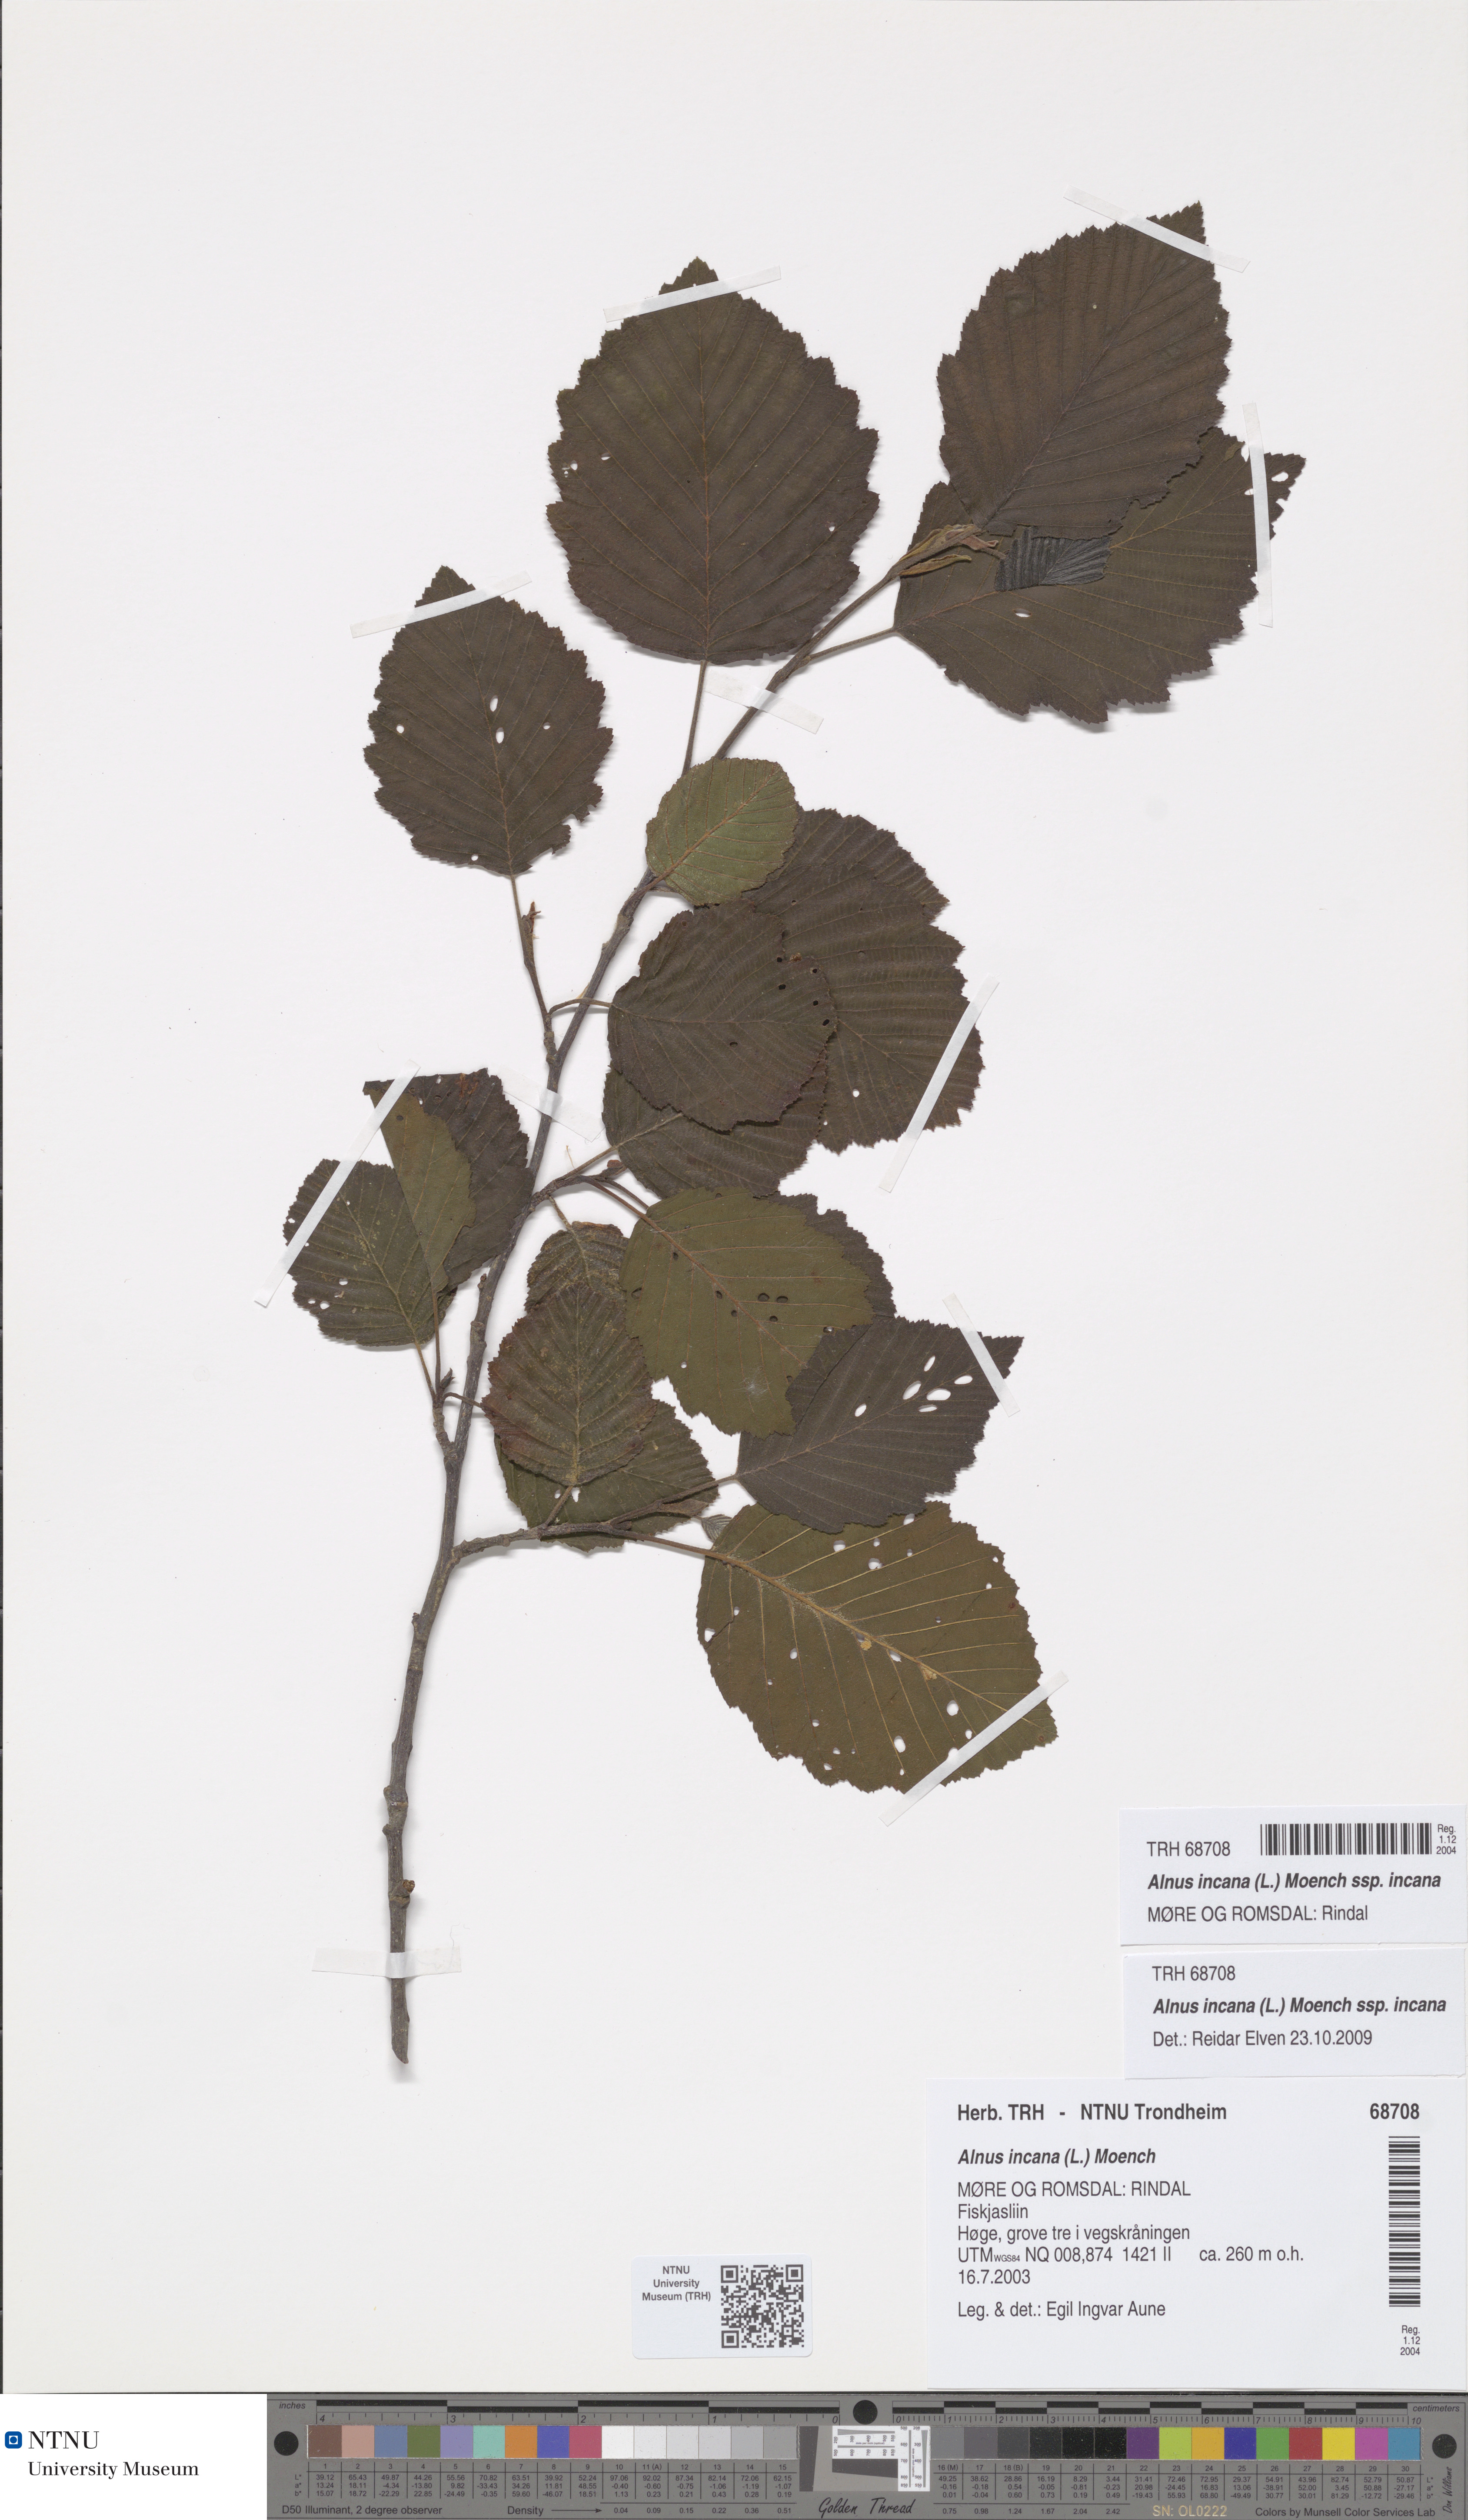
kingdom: Plantae
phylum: Tracheophyta
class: Magnoliopsida
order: Fagales
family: Betulaceae
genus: Alnus
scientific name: Alnus incana
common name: Grey alder
